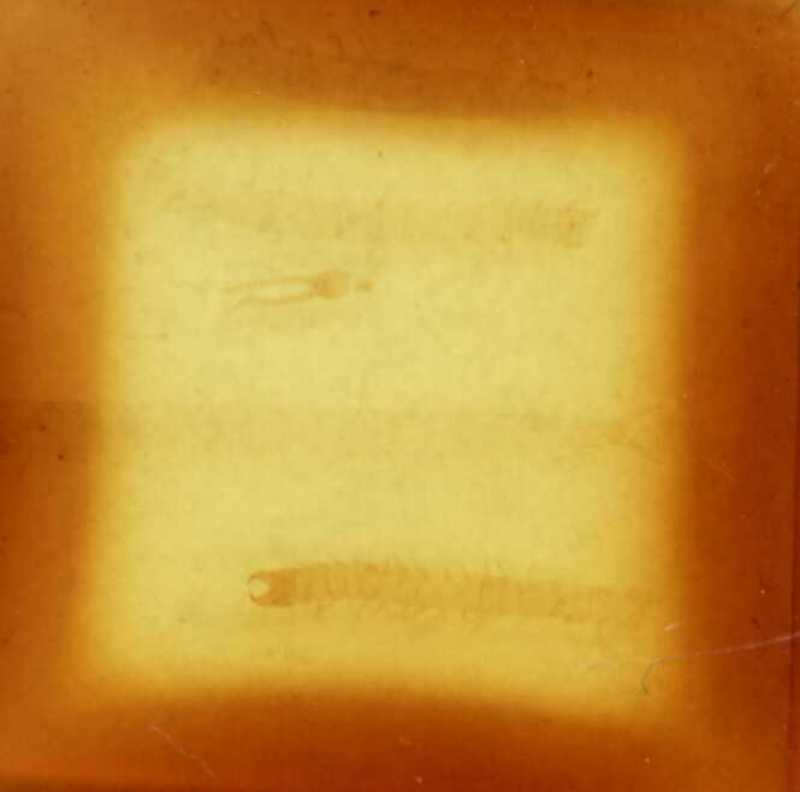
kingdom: Animalia
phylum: Arthropoda
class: Chilopoda
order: Geophilomorpha
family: Schendylidae
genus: Nannophilus
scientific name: Nannophilus eximius
